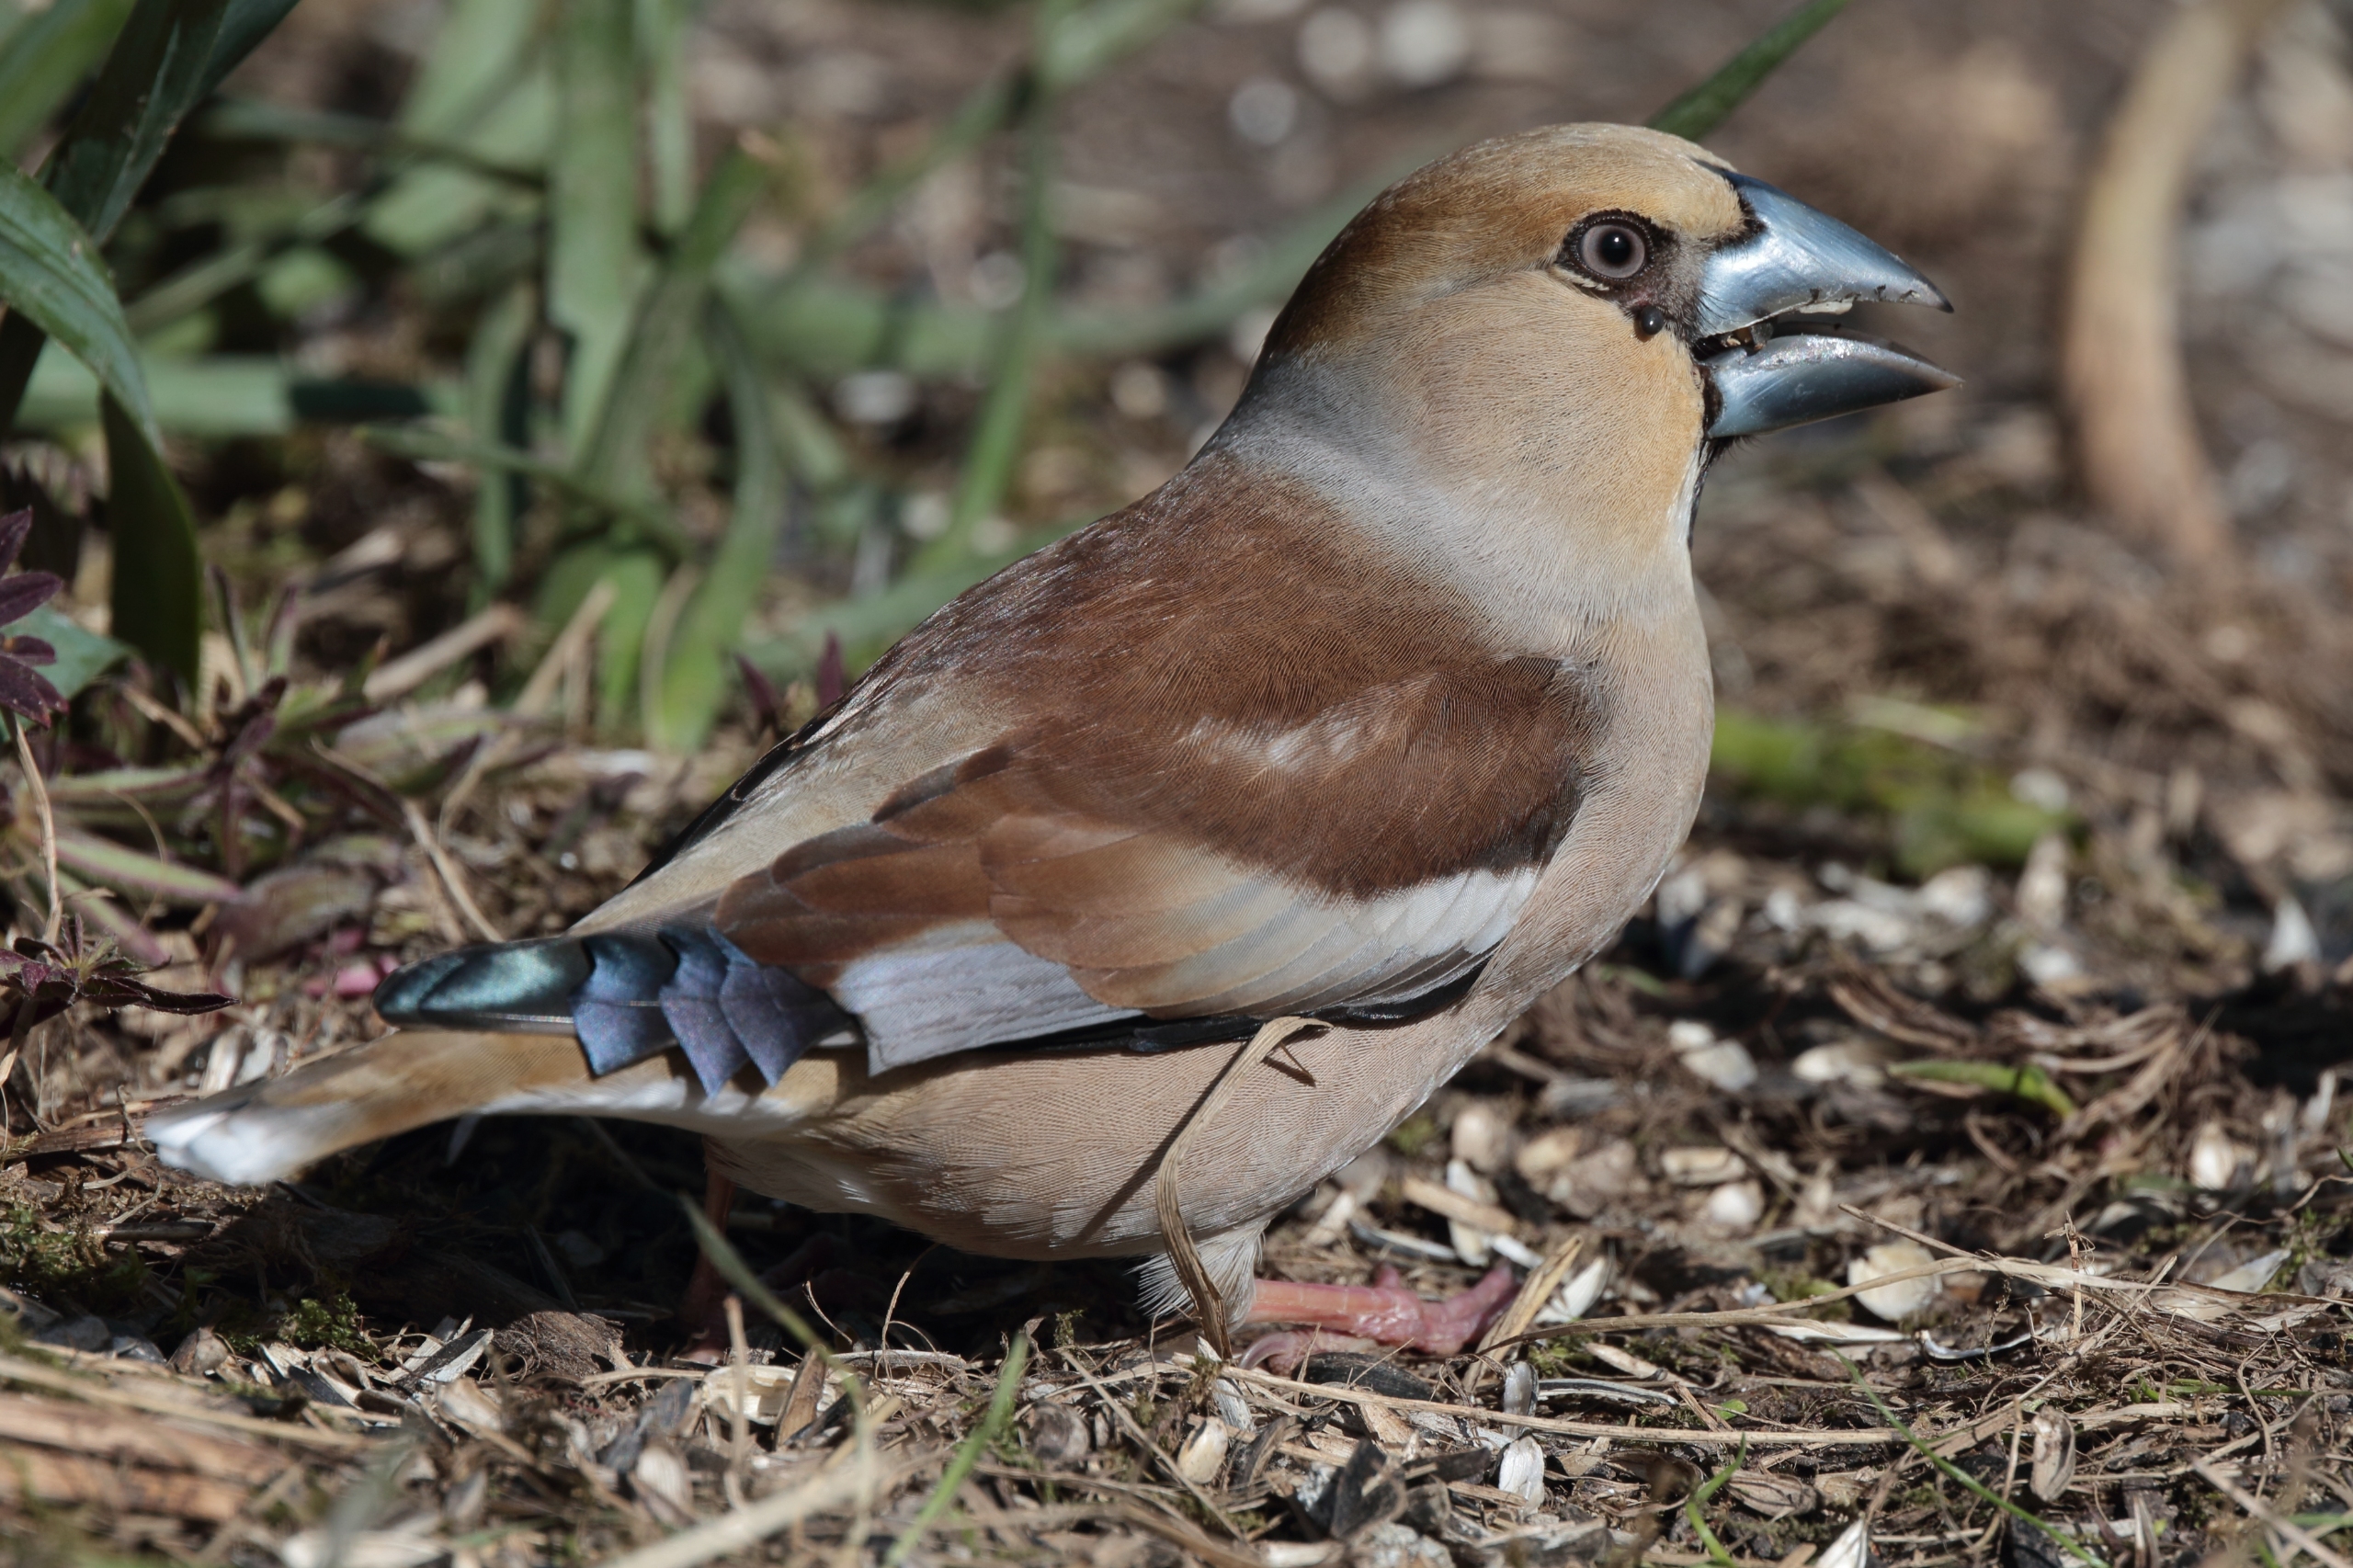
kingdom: Animalia
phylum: Chordata
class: Aves
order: Passeriformes
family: Fringillidae
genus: Coccothraustes
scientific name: Coccothraustes coccothraustes
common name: Kernebider
